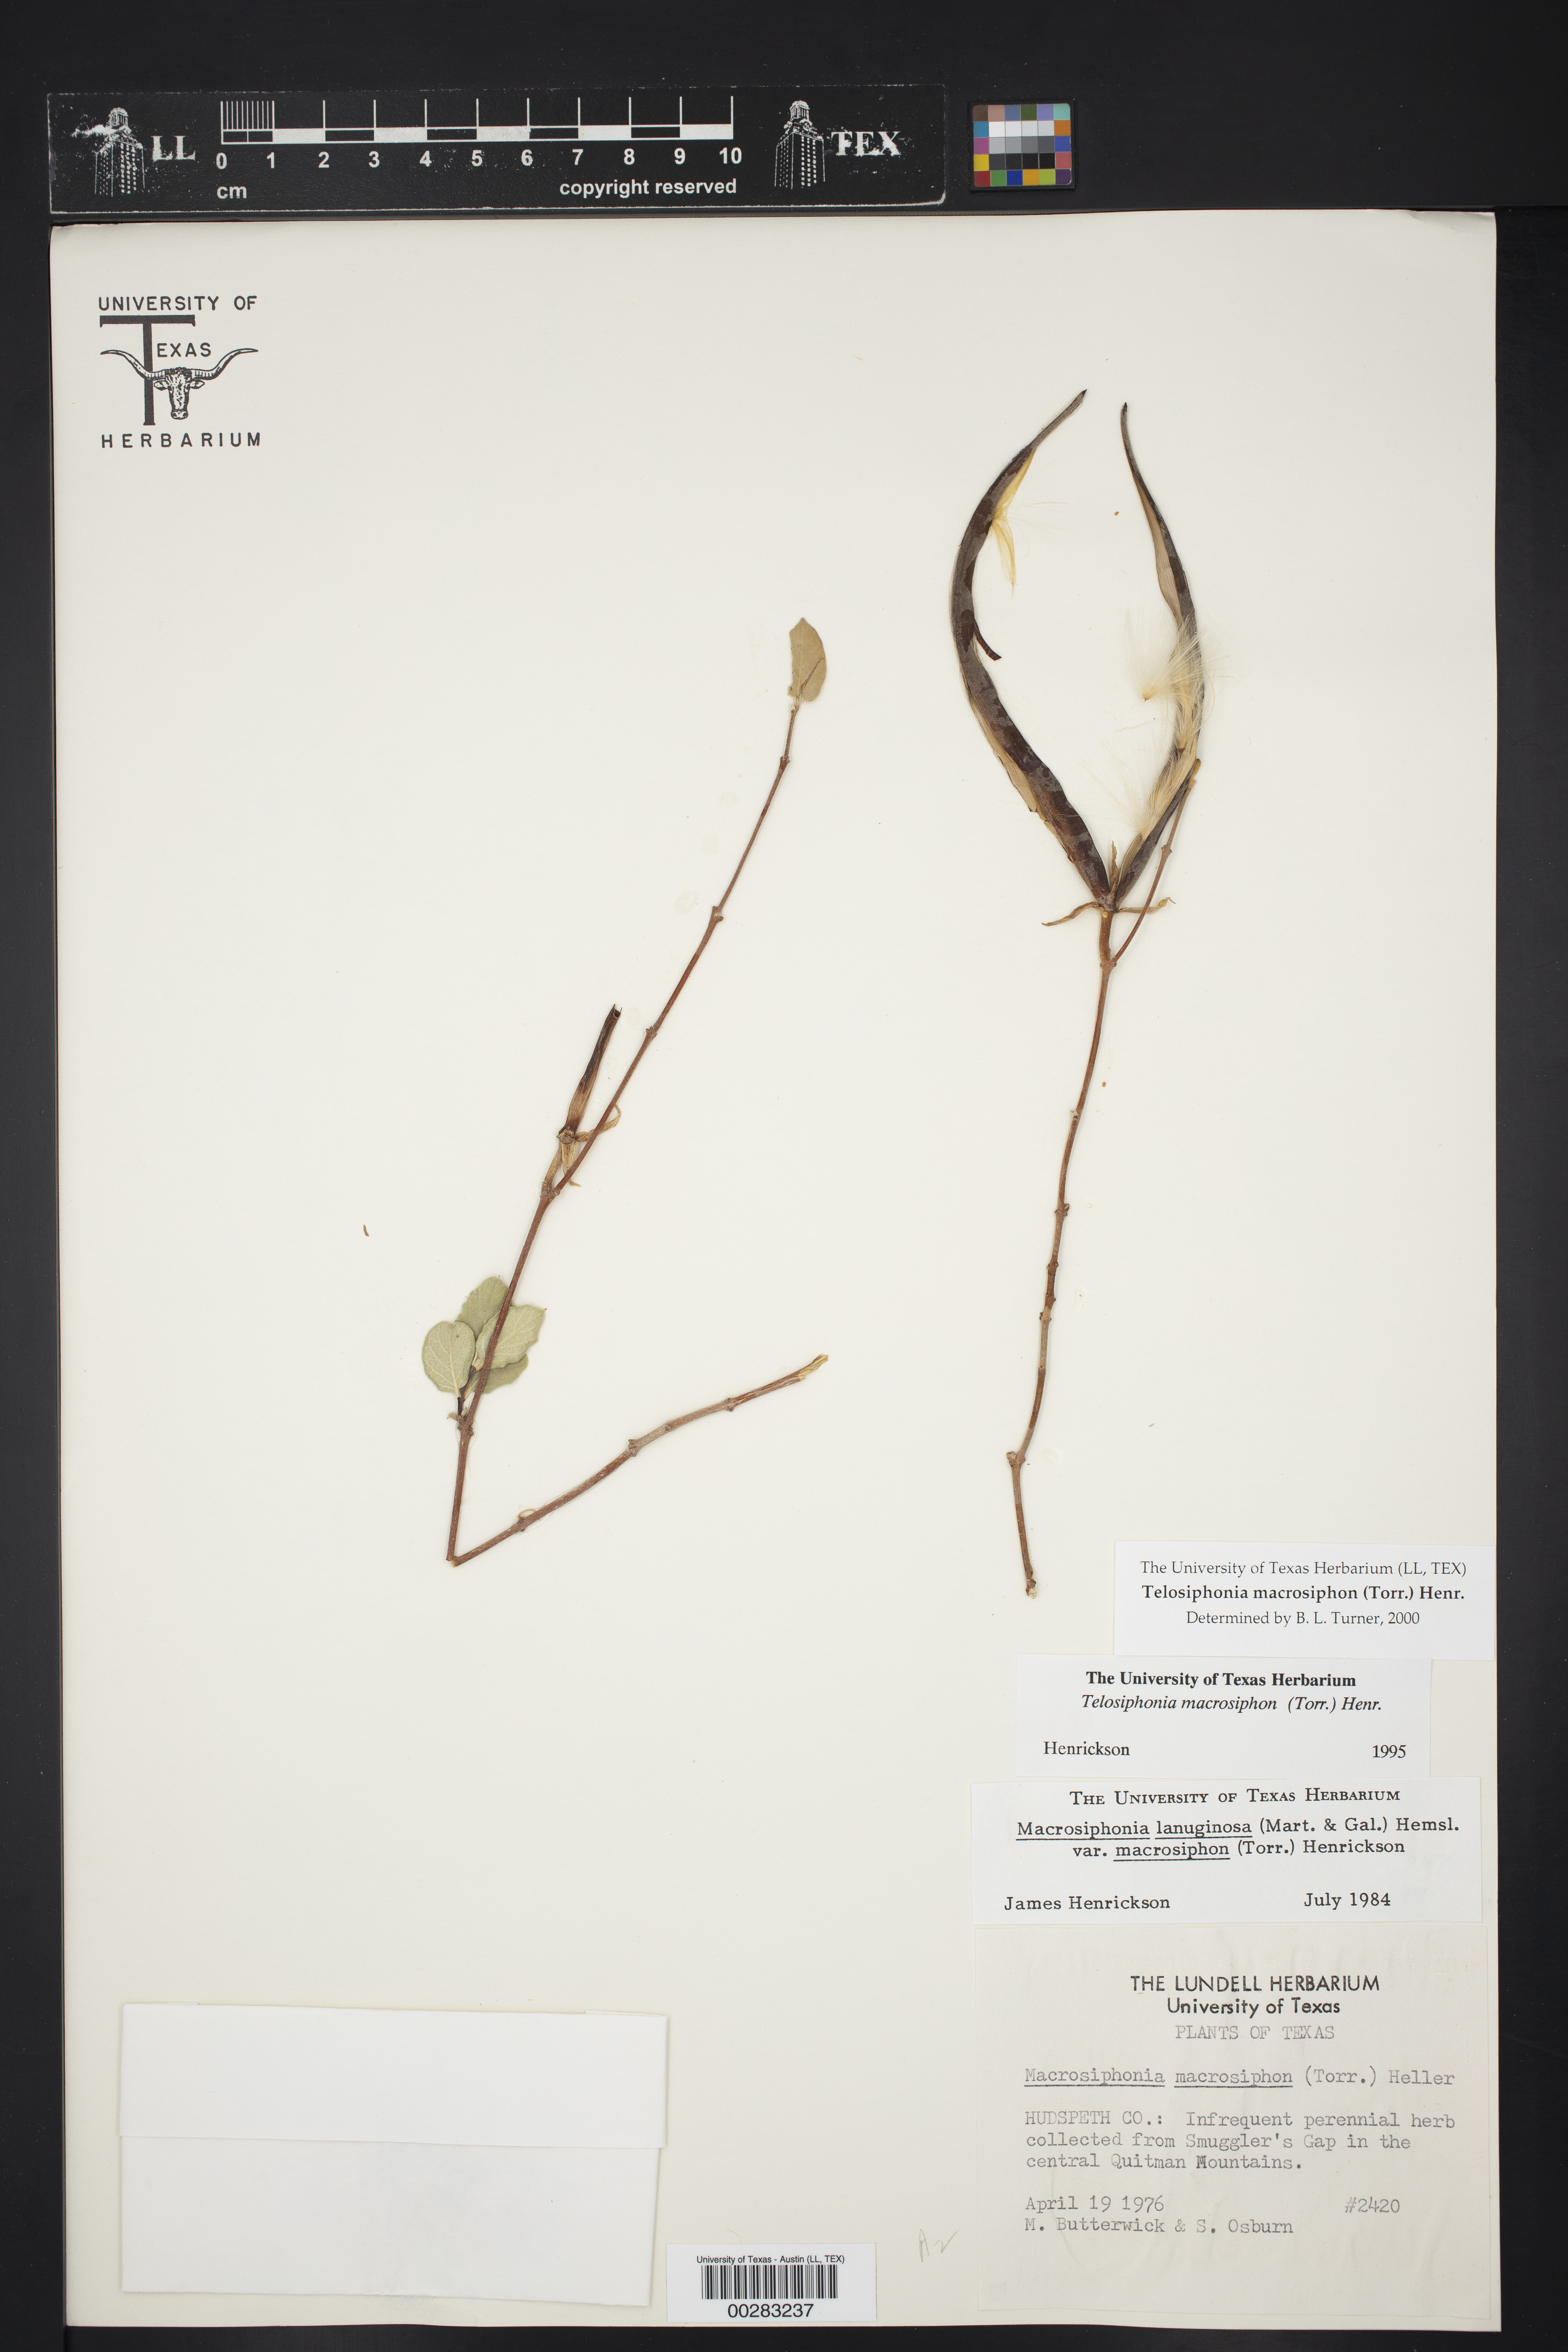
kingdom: Plantae
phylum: Tracheophyta
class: Magnoliopsida
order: Gentianales
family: Apocynaceae
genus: Mandevilla
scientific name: Mandevilla macrosiphon
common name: Plateau rocktrumpet
